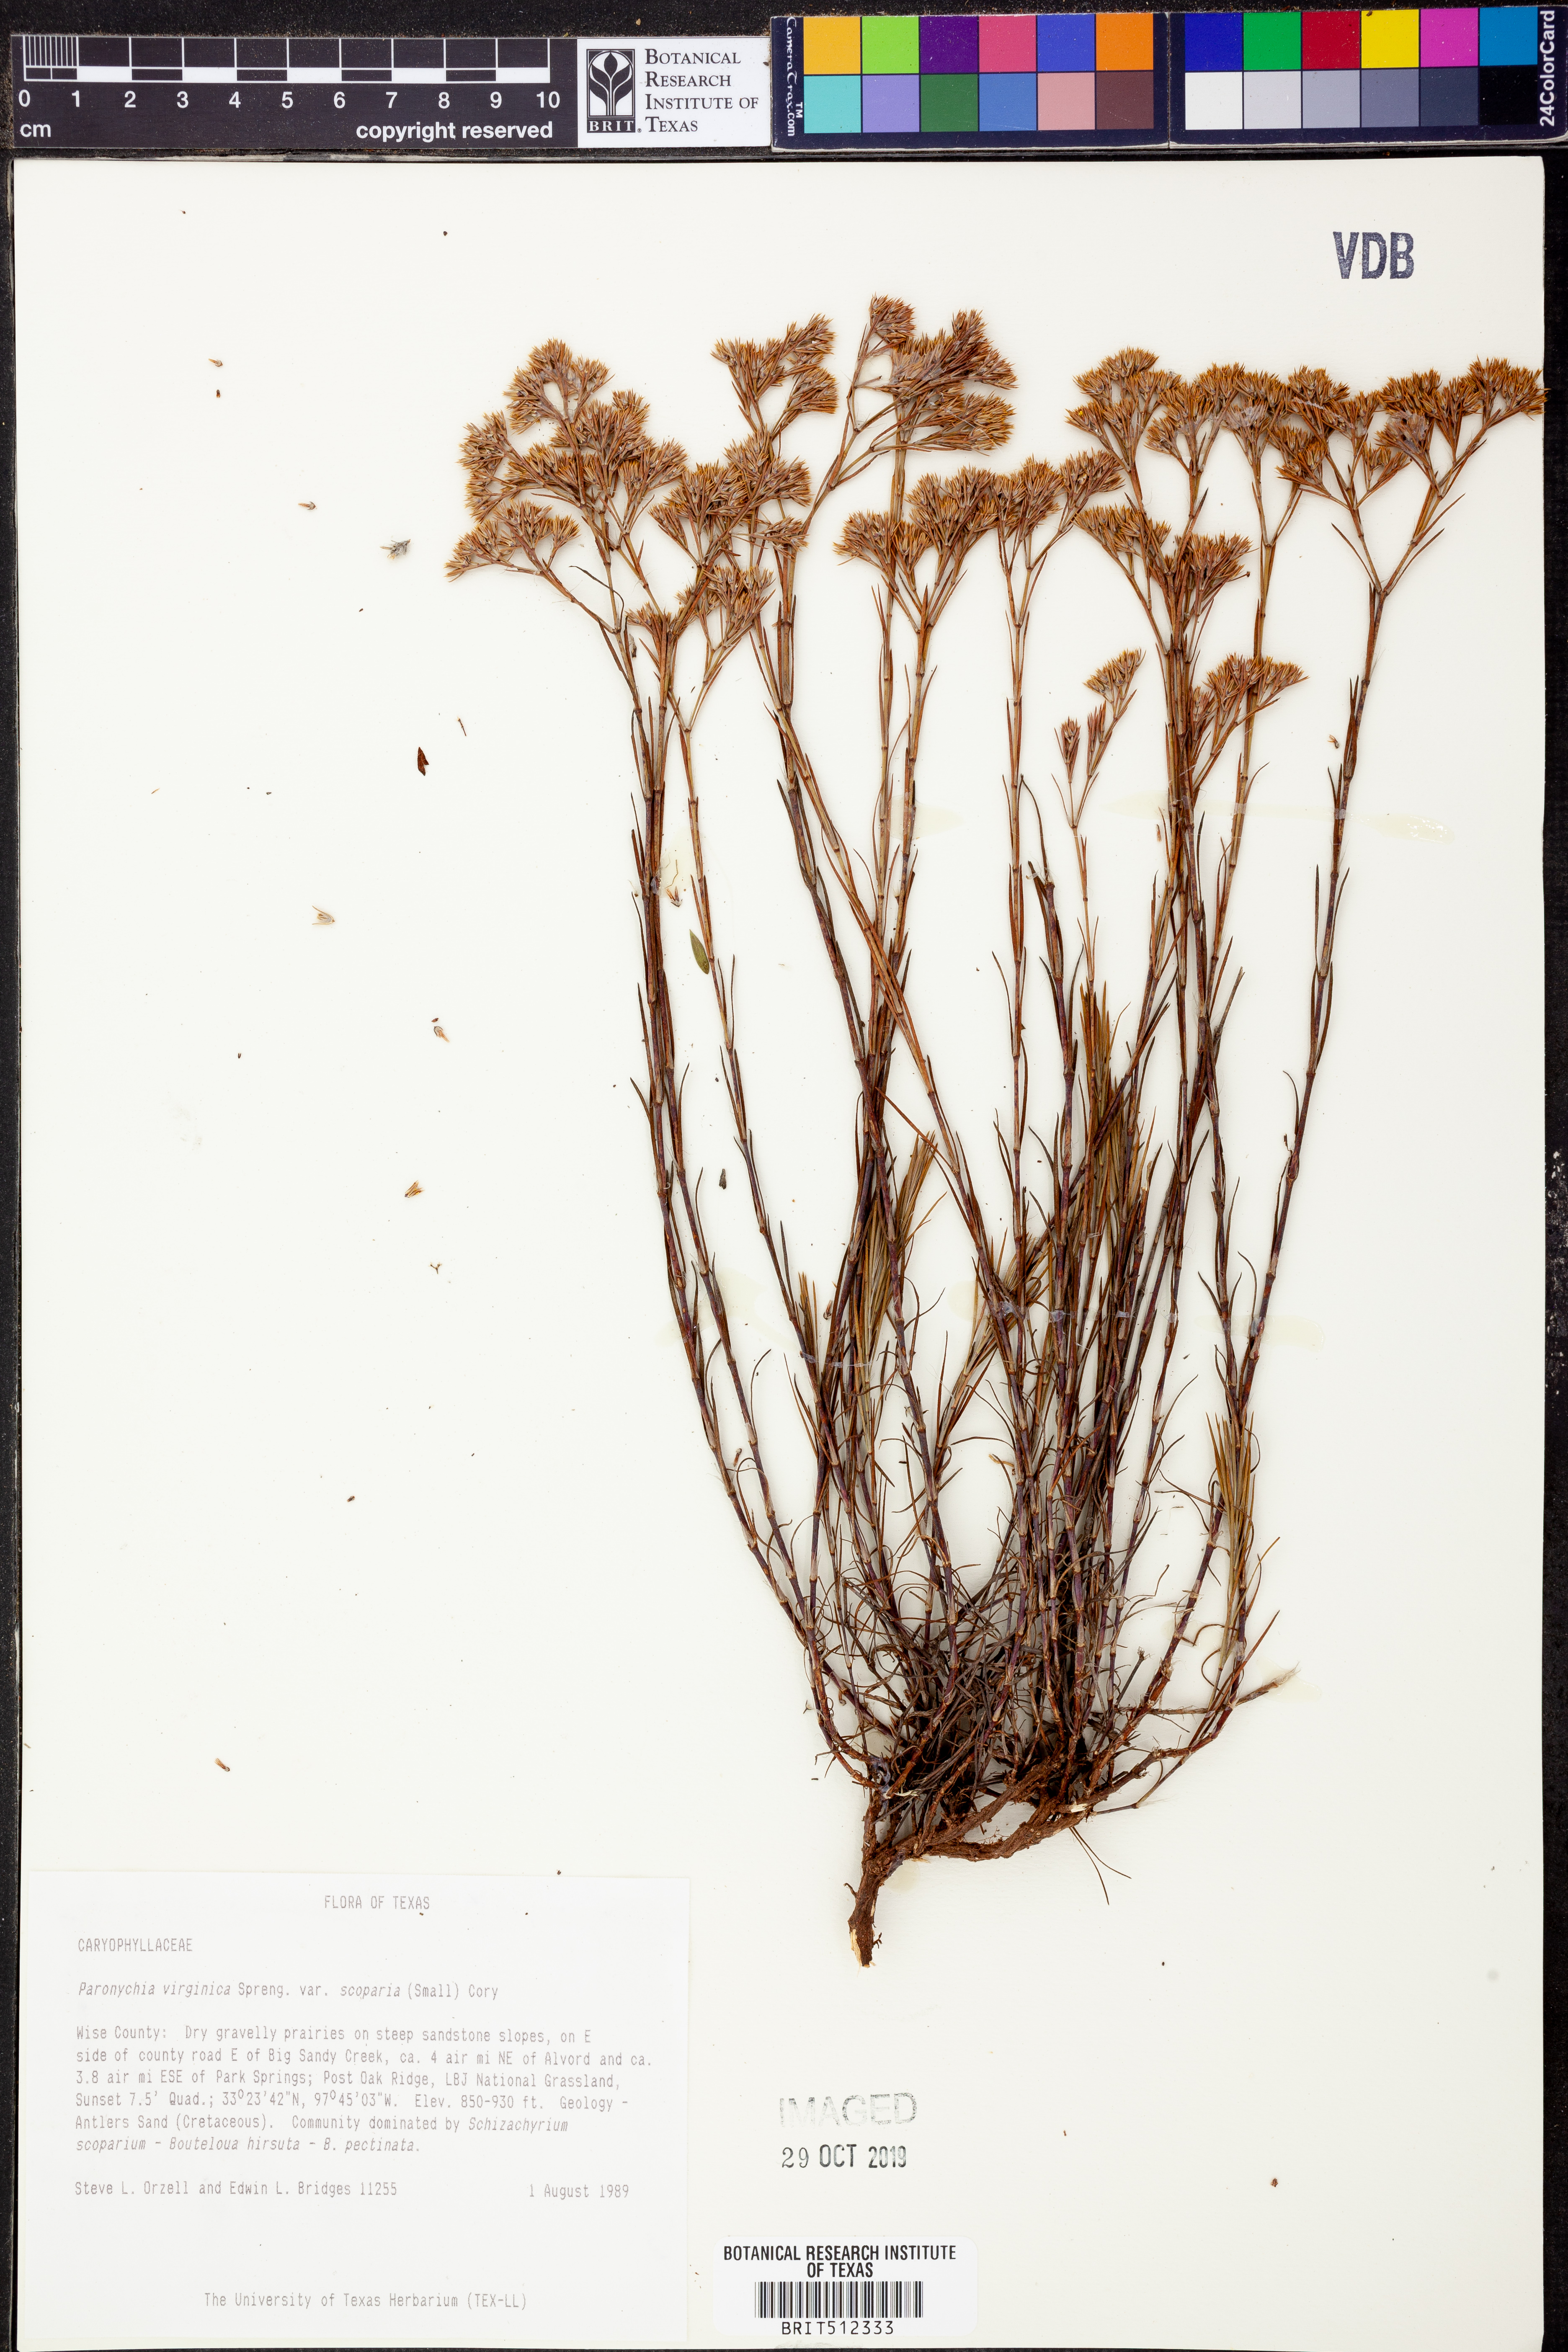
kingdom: Plantae
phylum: Tracheophyta
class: Magnoliopsida
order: Caryophyllales
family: Caryophyllaceae
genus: Paronychia
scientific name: Paronychia virginica
